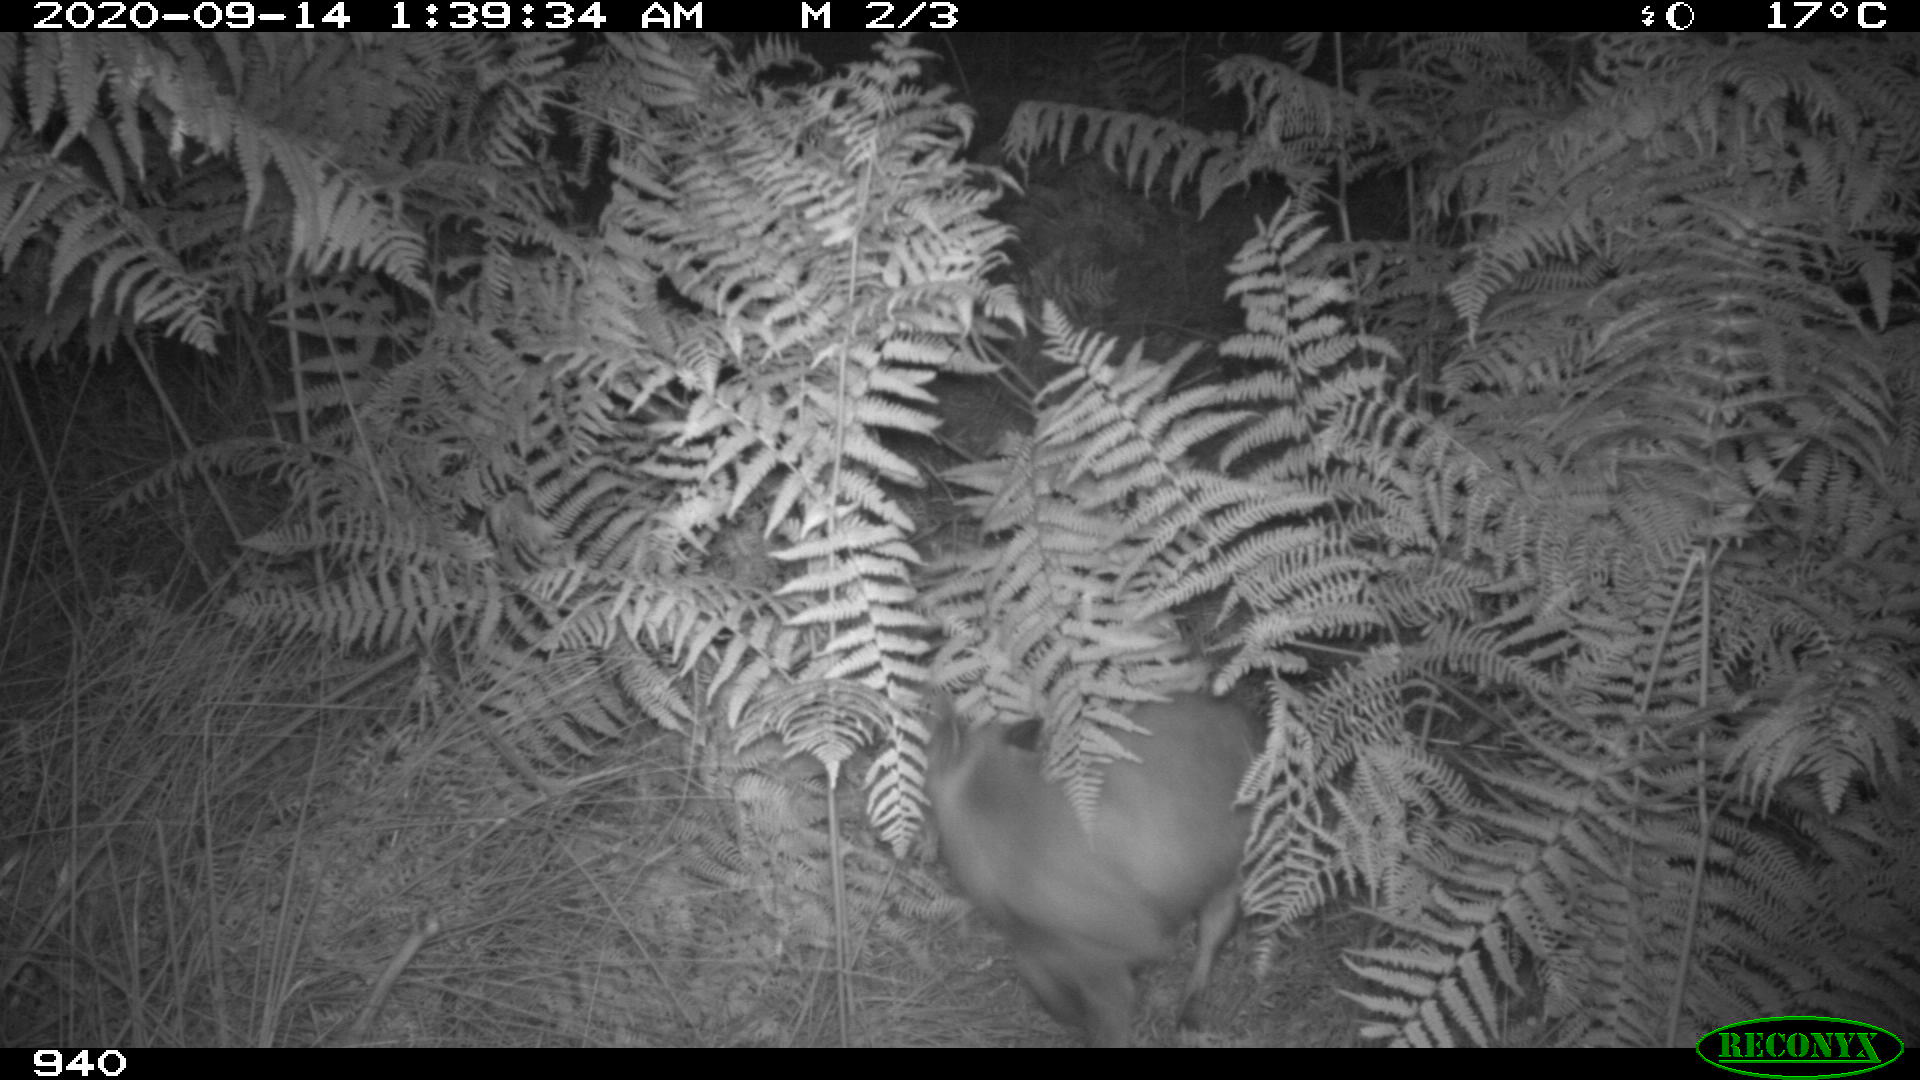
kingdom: Animalia
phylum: Chordata
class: Mammalia
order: Carnivora
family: Canidae
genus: Vulpes
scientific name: Vulpes vulpes
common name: Red fox
